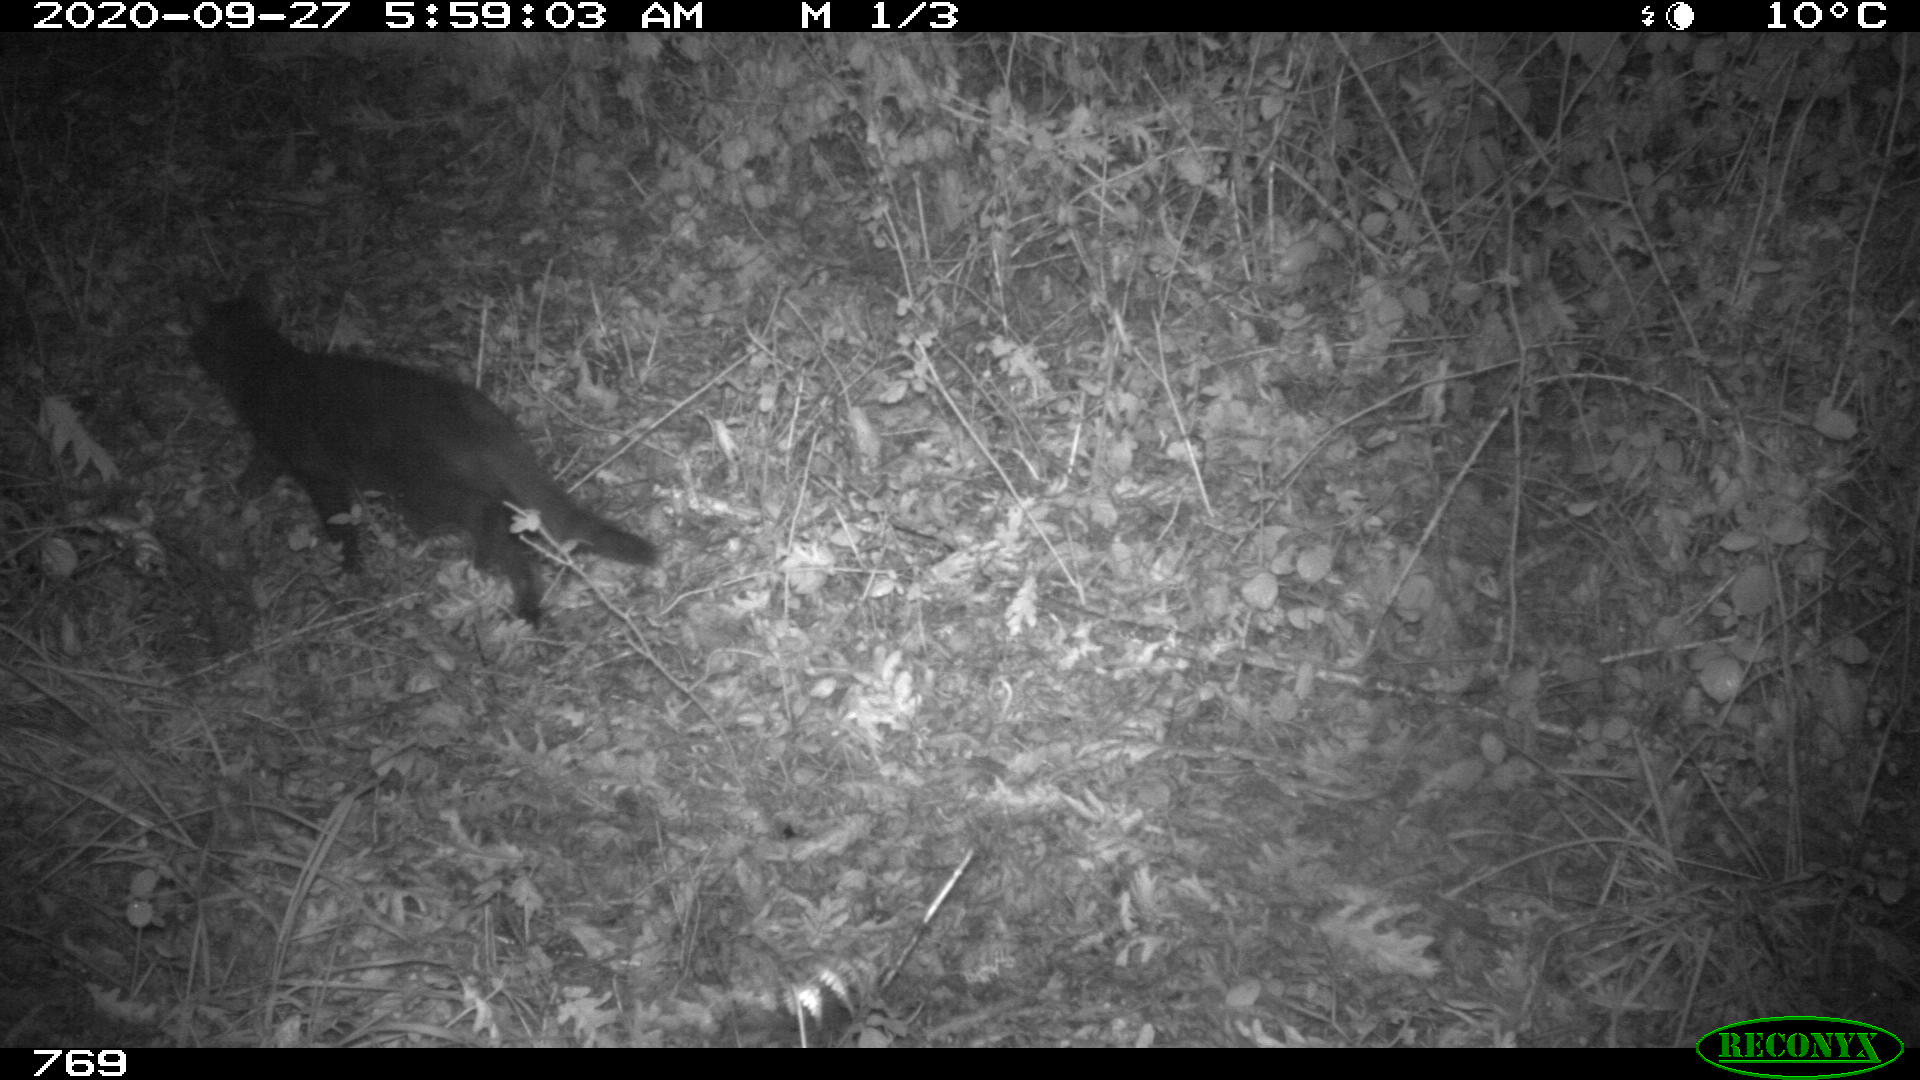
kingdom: Animalia
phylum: Chordata
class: Mammalia
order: Carnivora
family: Felidae
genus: Felis
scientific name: Felis catus
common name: Domestic cat
